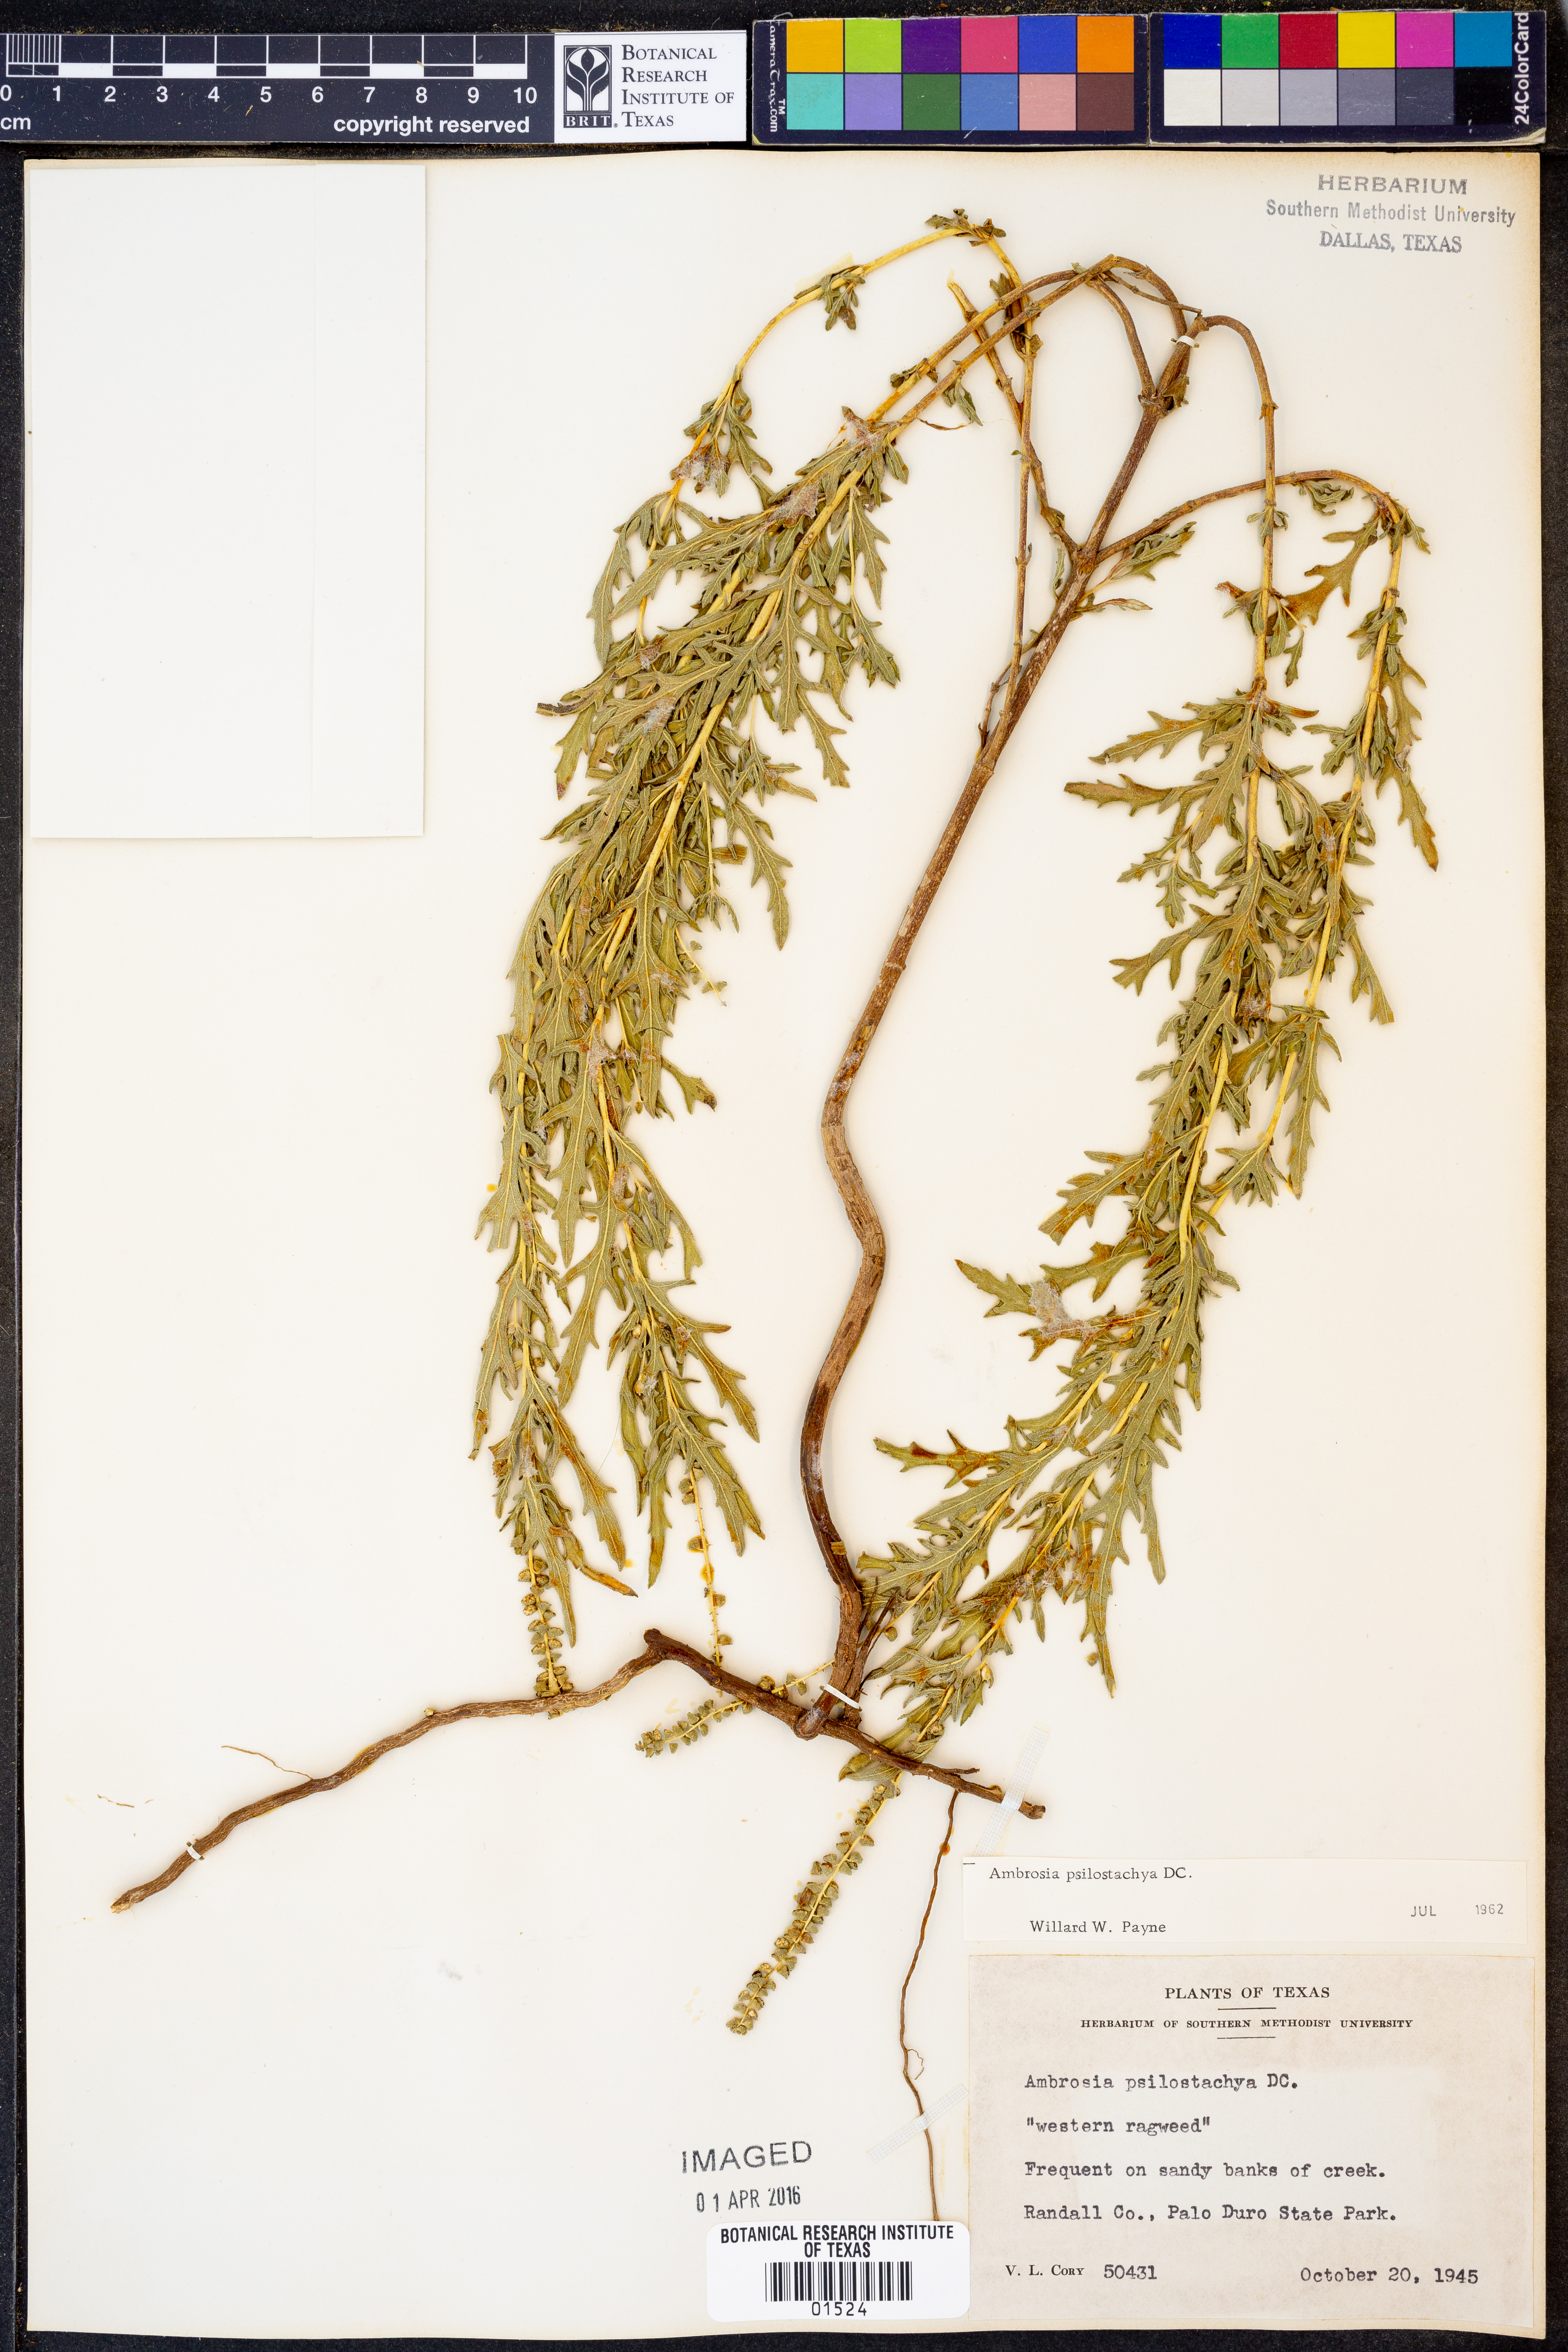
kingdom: Plantae
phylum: Tracheophyta
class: Magnoliopsida
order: Asterales
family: Asteraceae
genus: Ambrosia
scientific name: Ambrosia psilostachya
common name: Perennial ragweed
